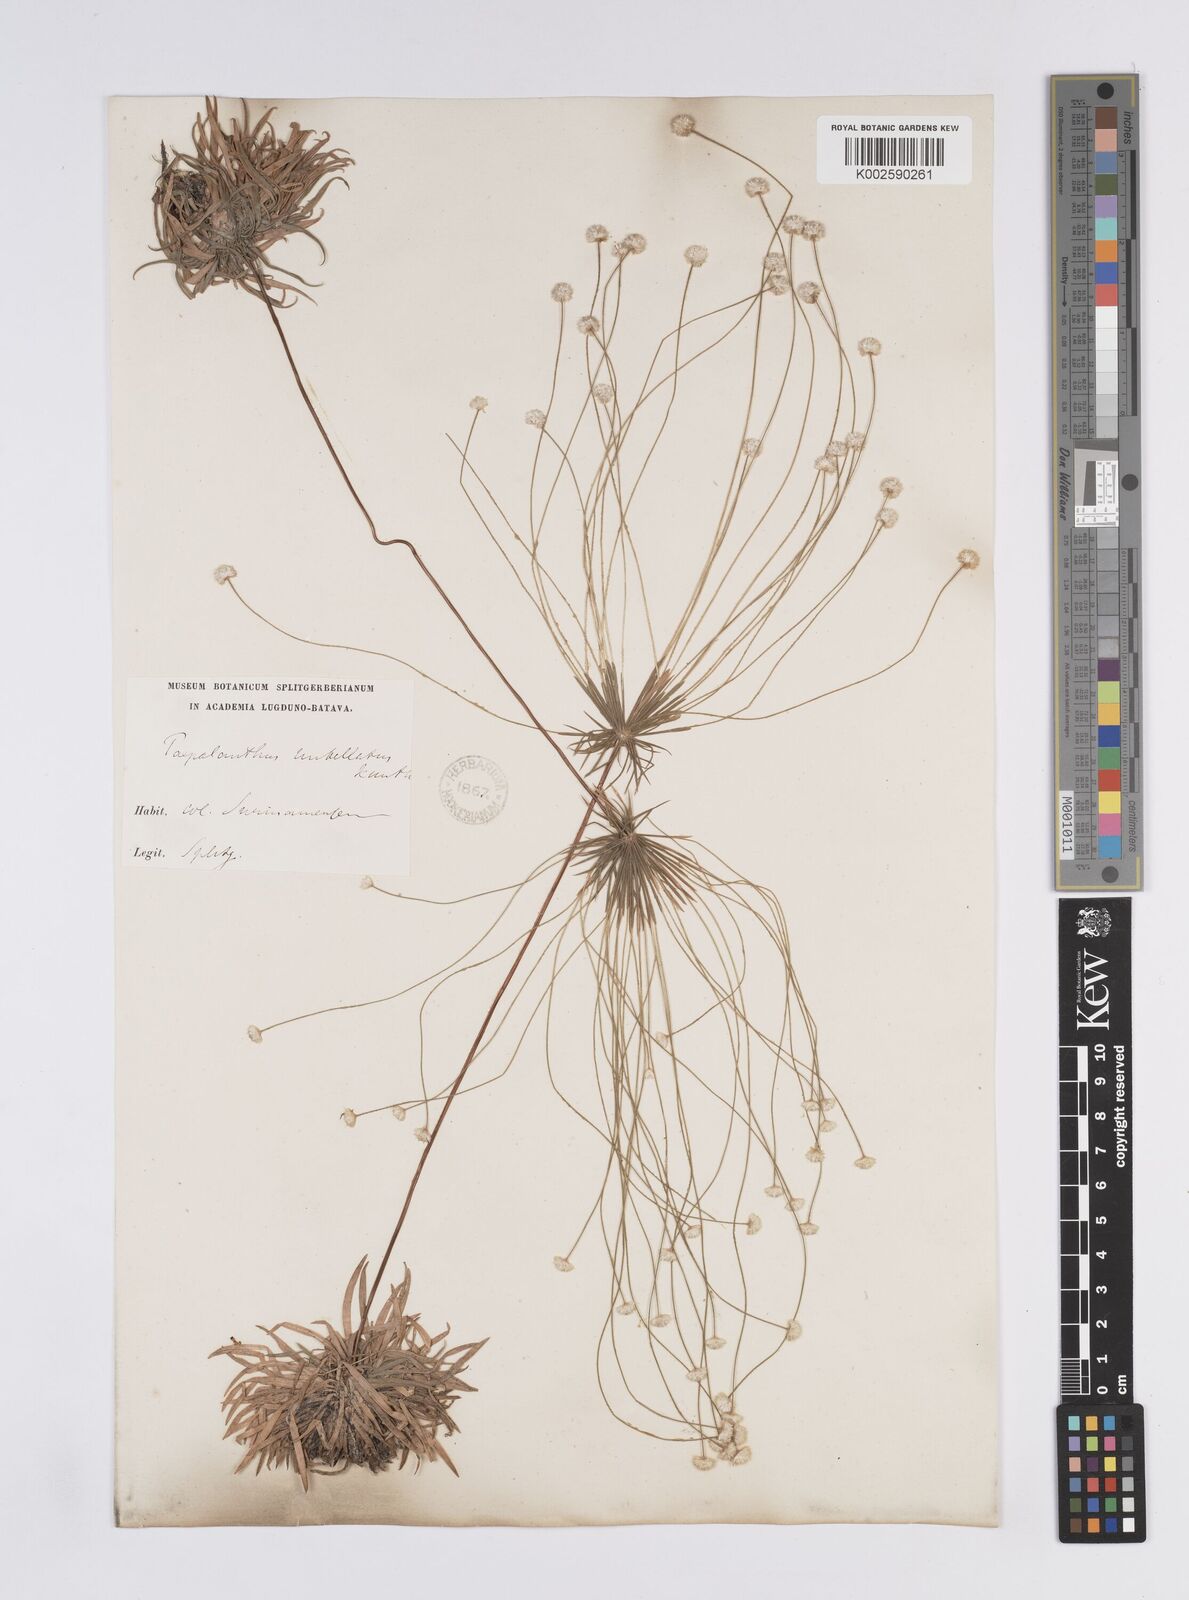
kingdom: Plantae
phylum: Tracheophyta
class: Liliopsida
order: Poales
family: Eriocaulaceae
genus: Syngonanthus
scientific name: Syngonanthus umbellatus
